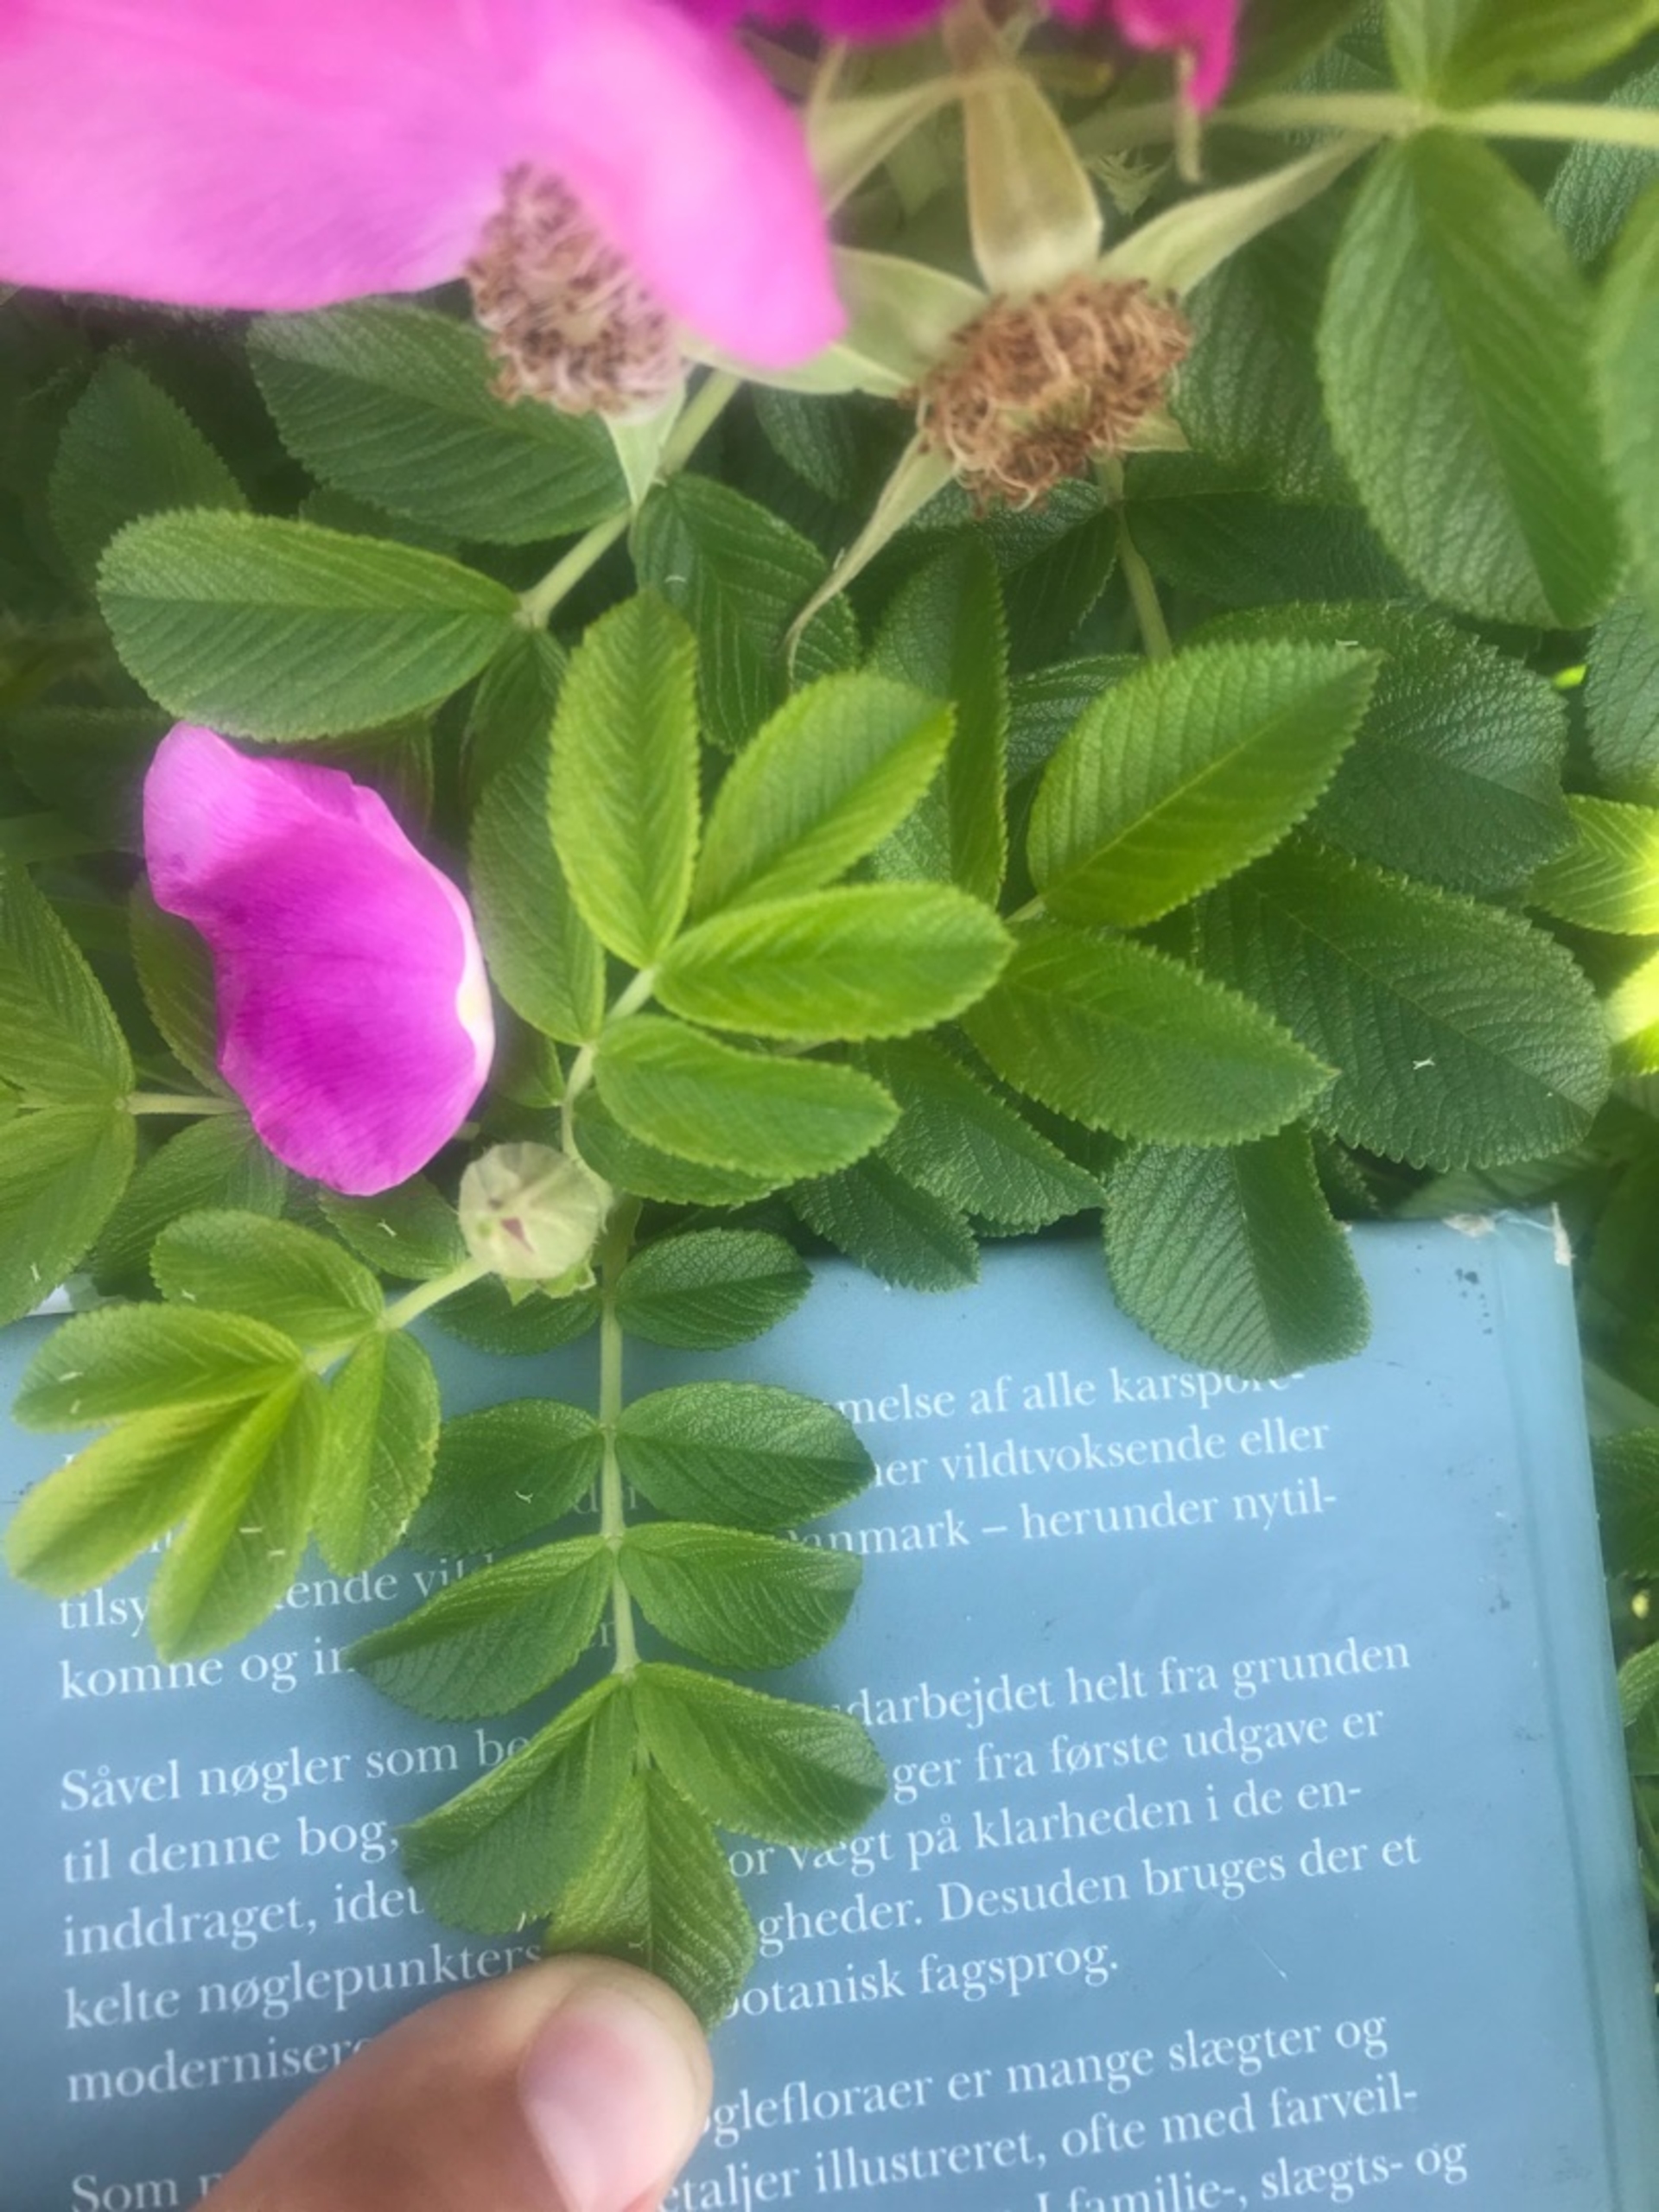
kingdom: Plantae
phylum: Tracheophyta
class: Magnoliopsida
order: Rosales
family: Rosaceae
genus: Rosa
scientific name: Rosa rugosa
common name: Rynket rose
